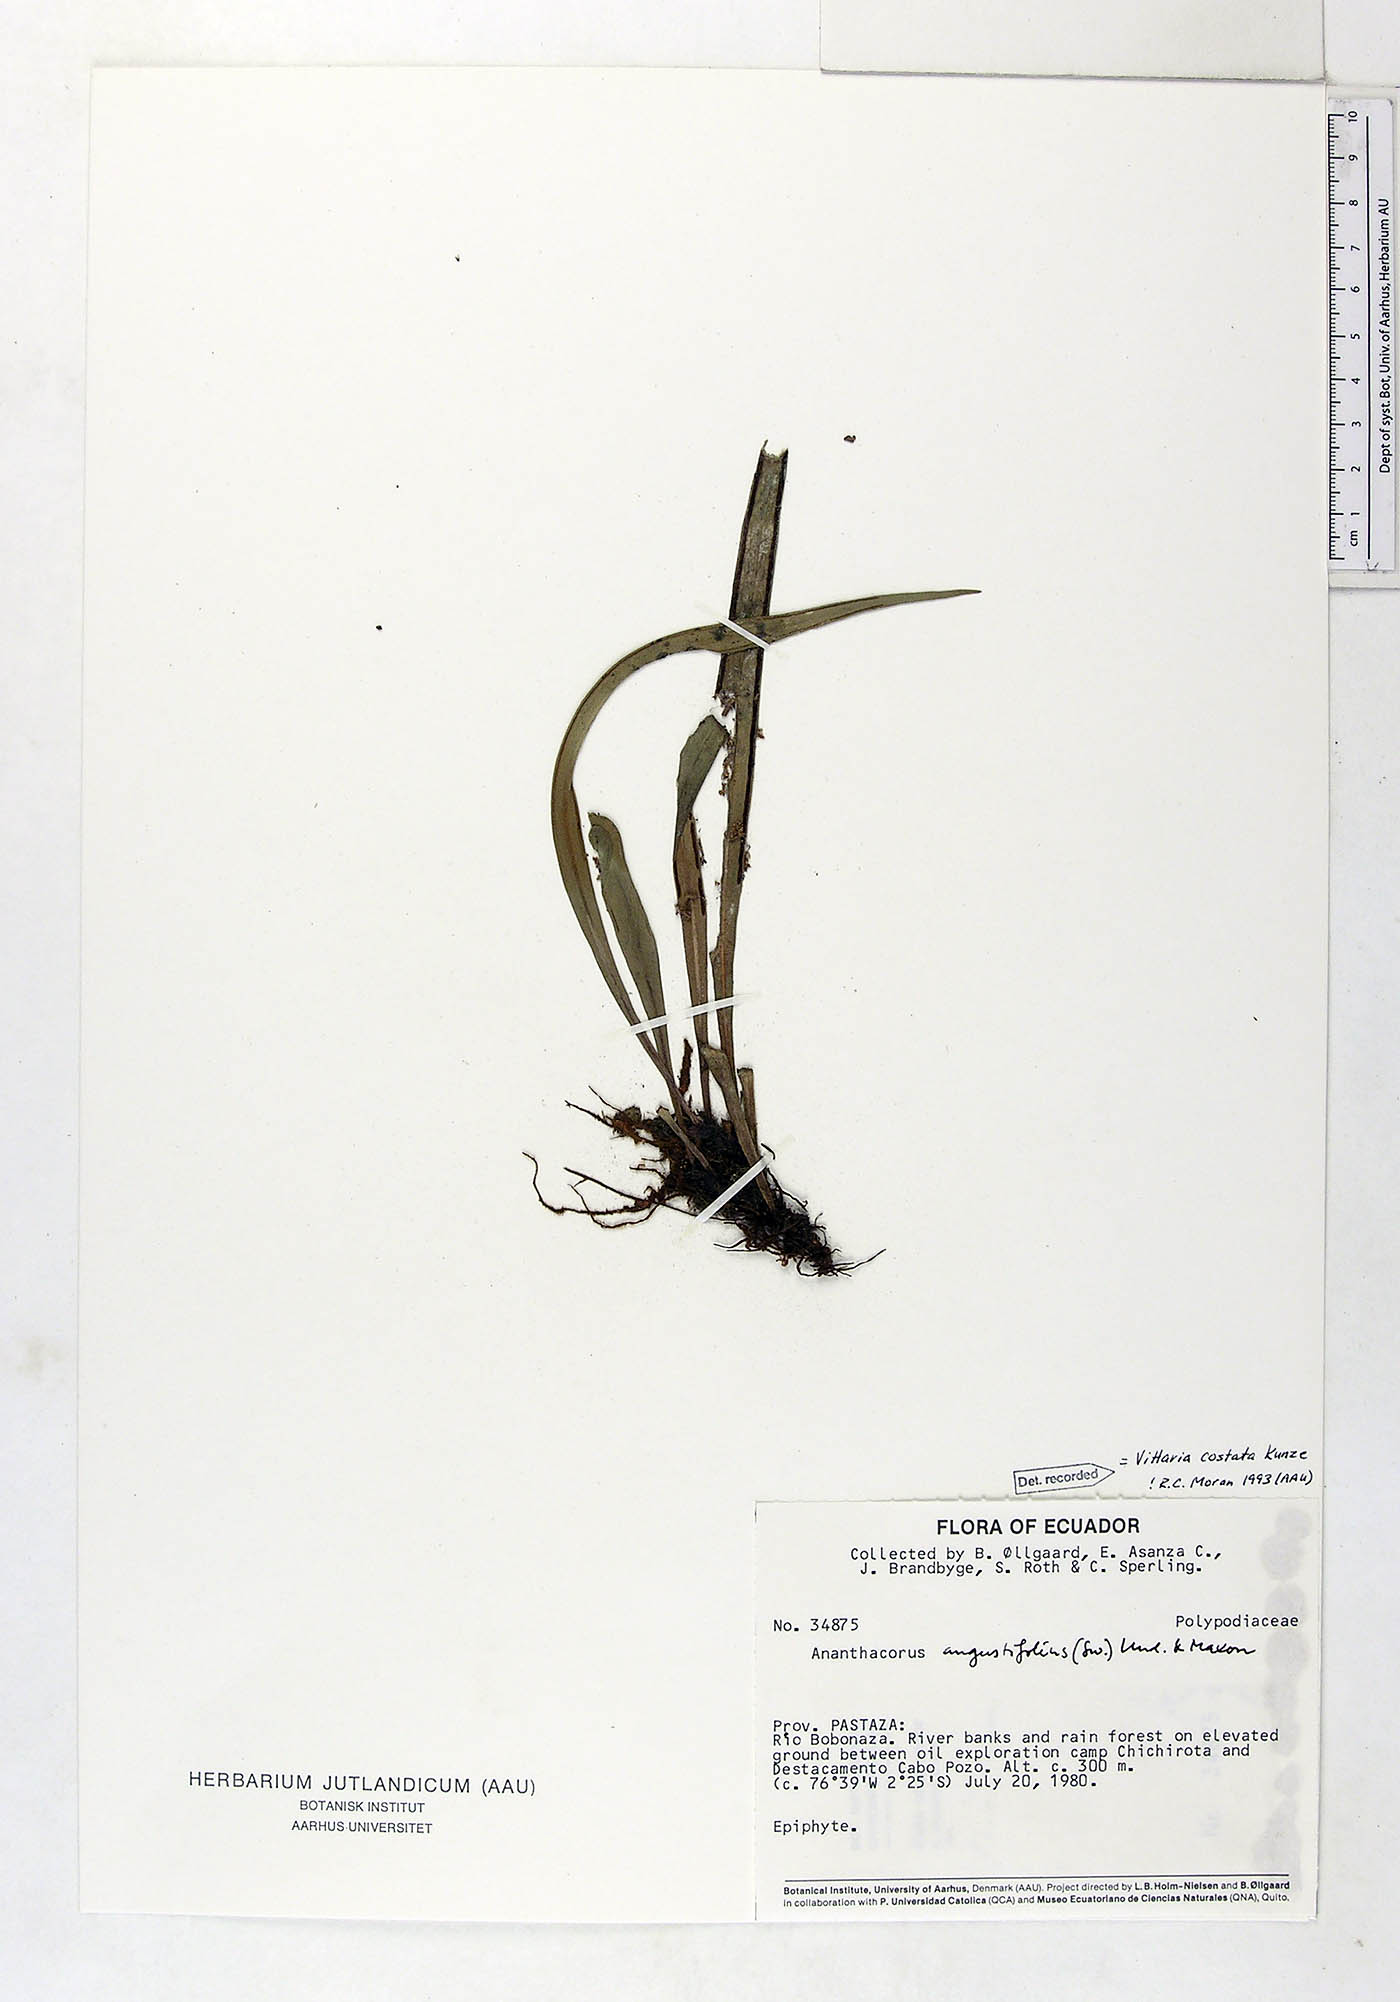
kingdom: Plantae
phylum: Tracheophyta
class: Polypodiopsida
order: Polypodiales
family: Pteridaceae
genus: Ananthacorus
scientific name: Ananthacorus angustifolius
